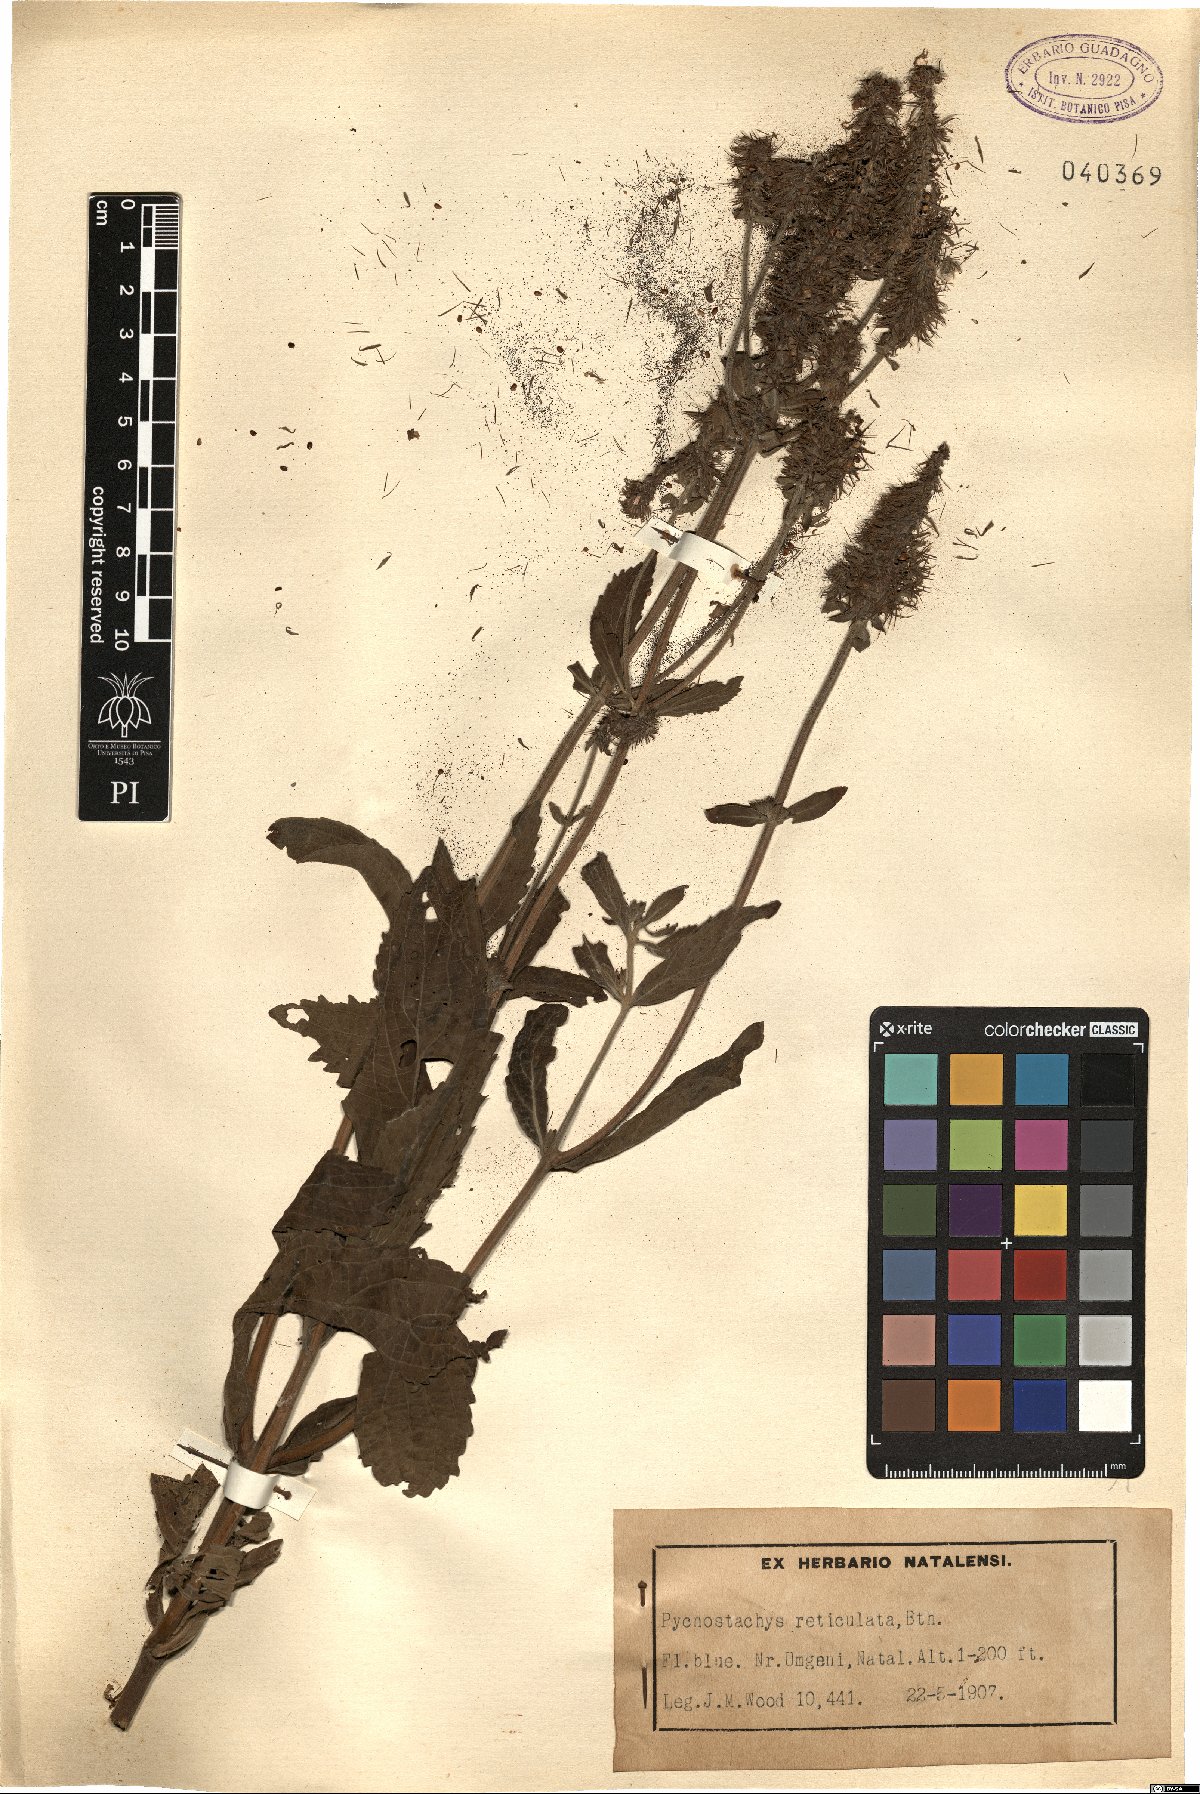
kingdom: Plantae
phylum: Tracheophyta
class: Magnoliopsida
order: Lamiales
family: Lamiaceae
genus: Coleus
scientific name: Coleus kirkii
